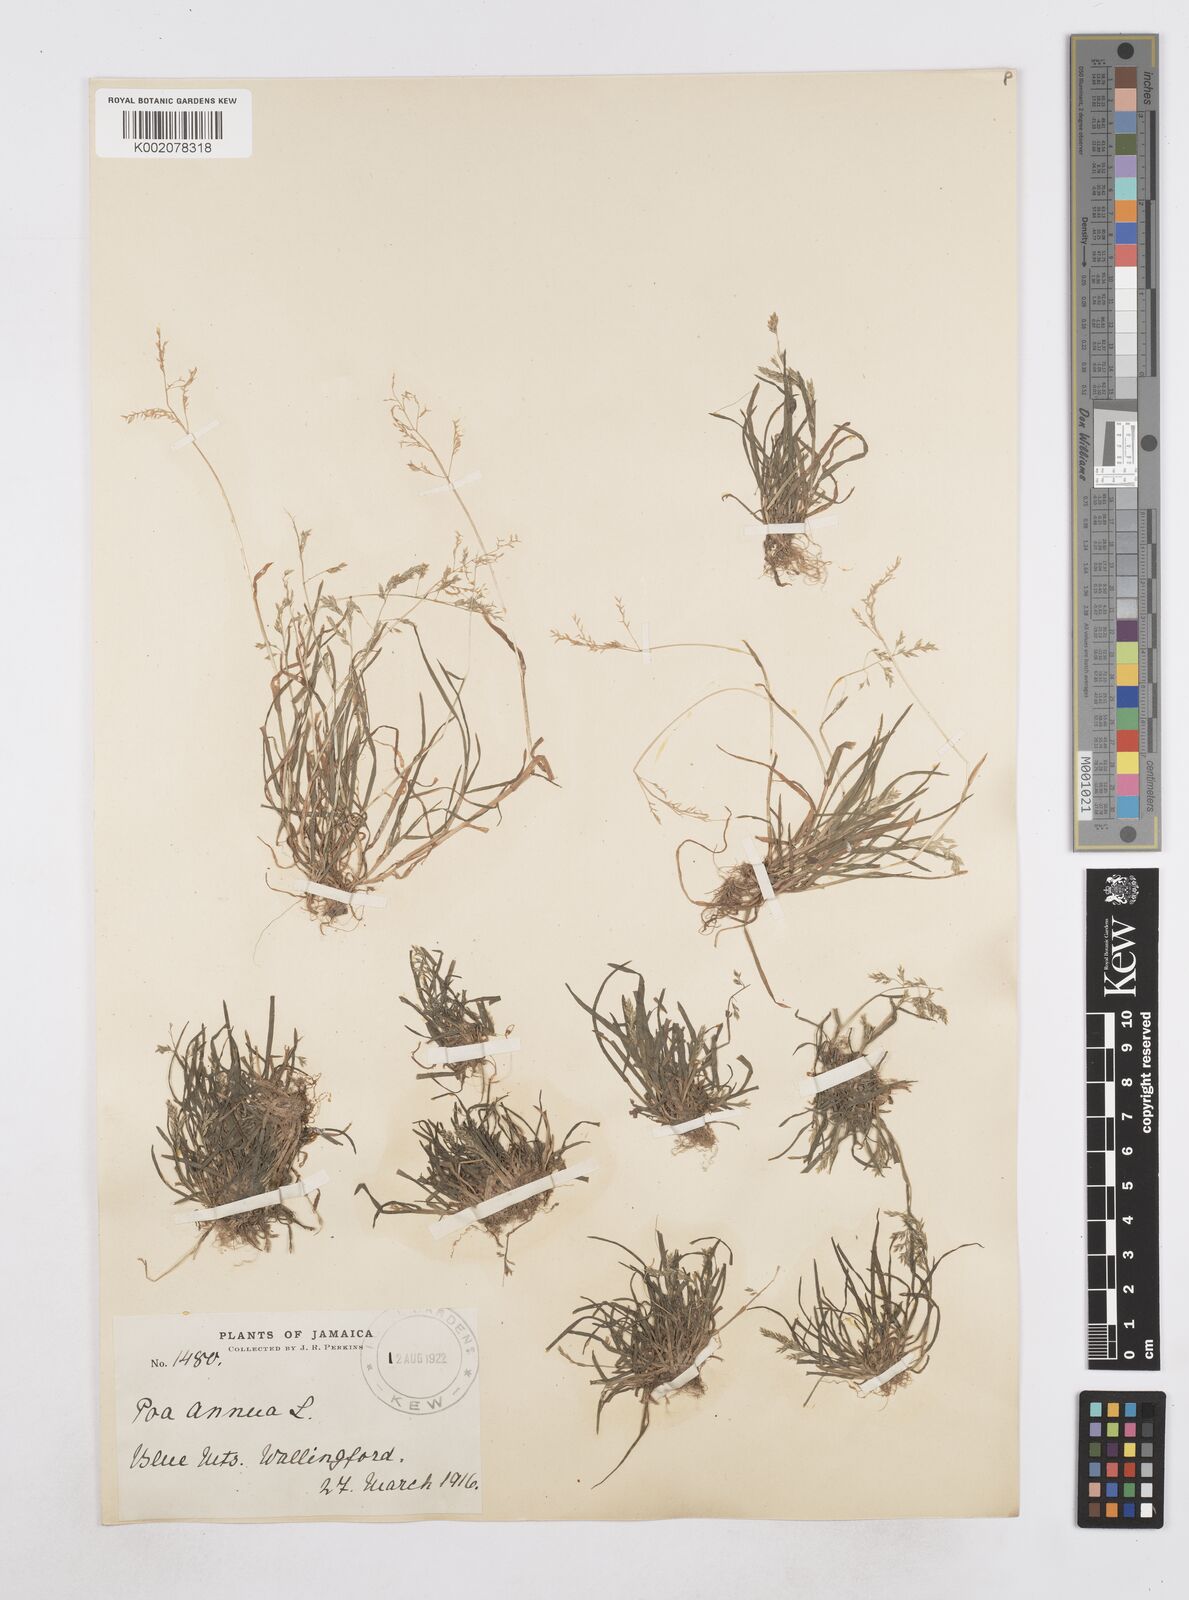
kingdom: Plantae
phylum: Tracheophyta
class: Liliopsida
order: Poales
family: Poaceae
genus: Poa
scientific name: Poa annua
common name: Annual bluegrass
